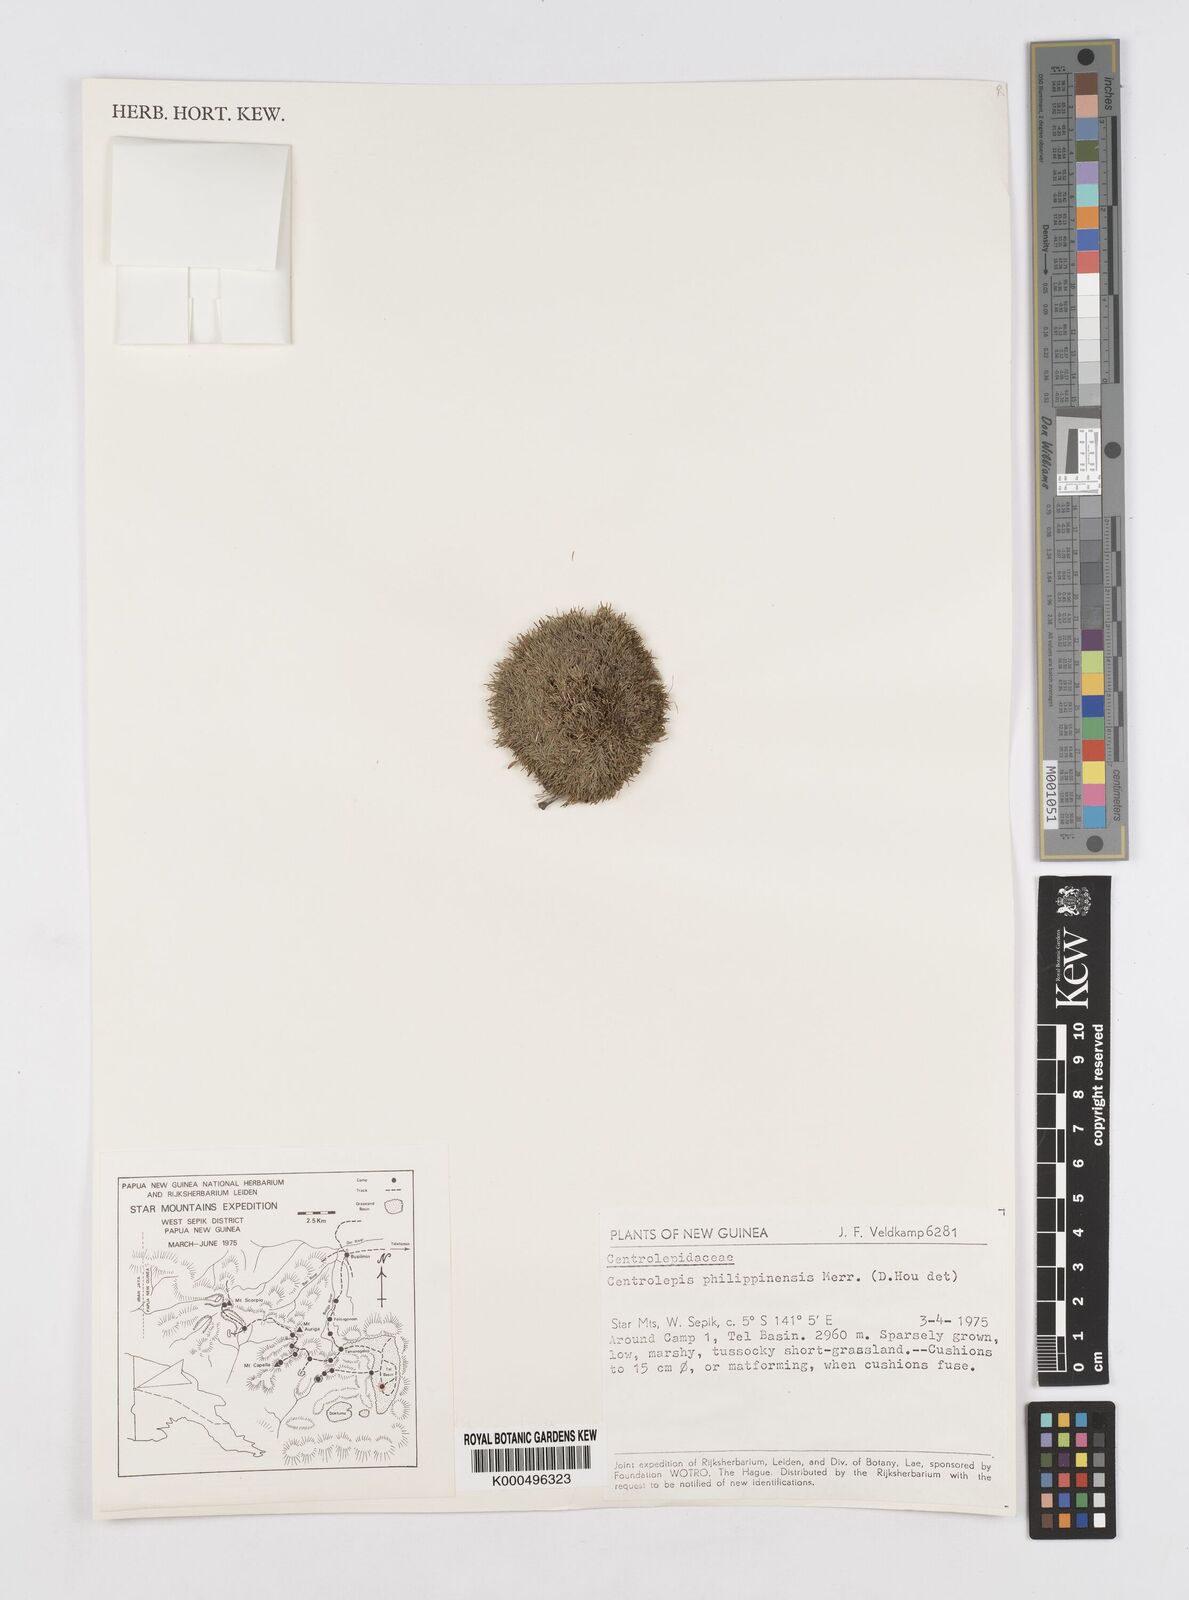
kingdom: Plantae
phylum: Tracheophyta
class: Liliopsida
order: Poales
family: Restionaceae
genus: Centrolepis
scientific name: Centrolepis philippinensis
